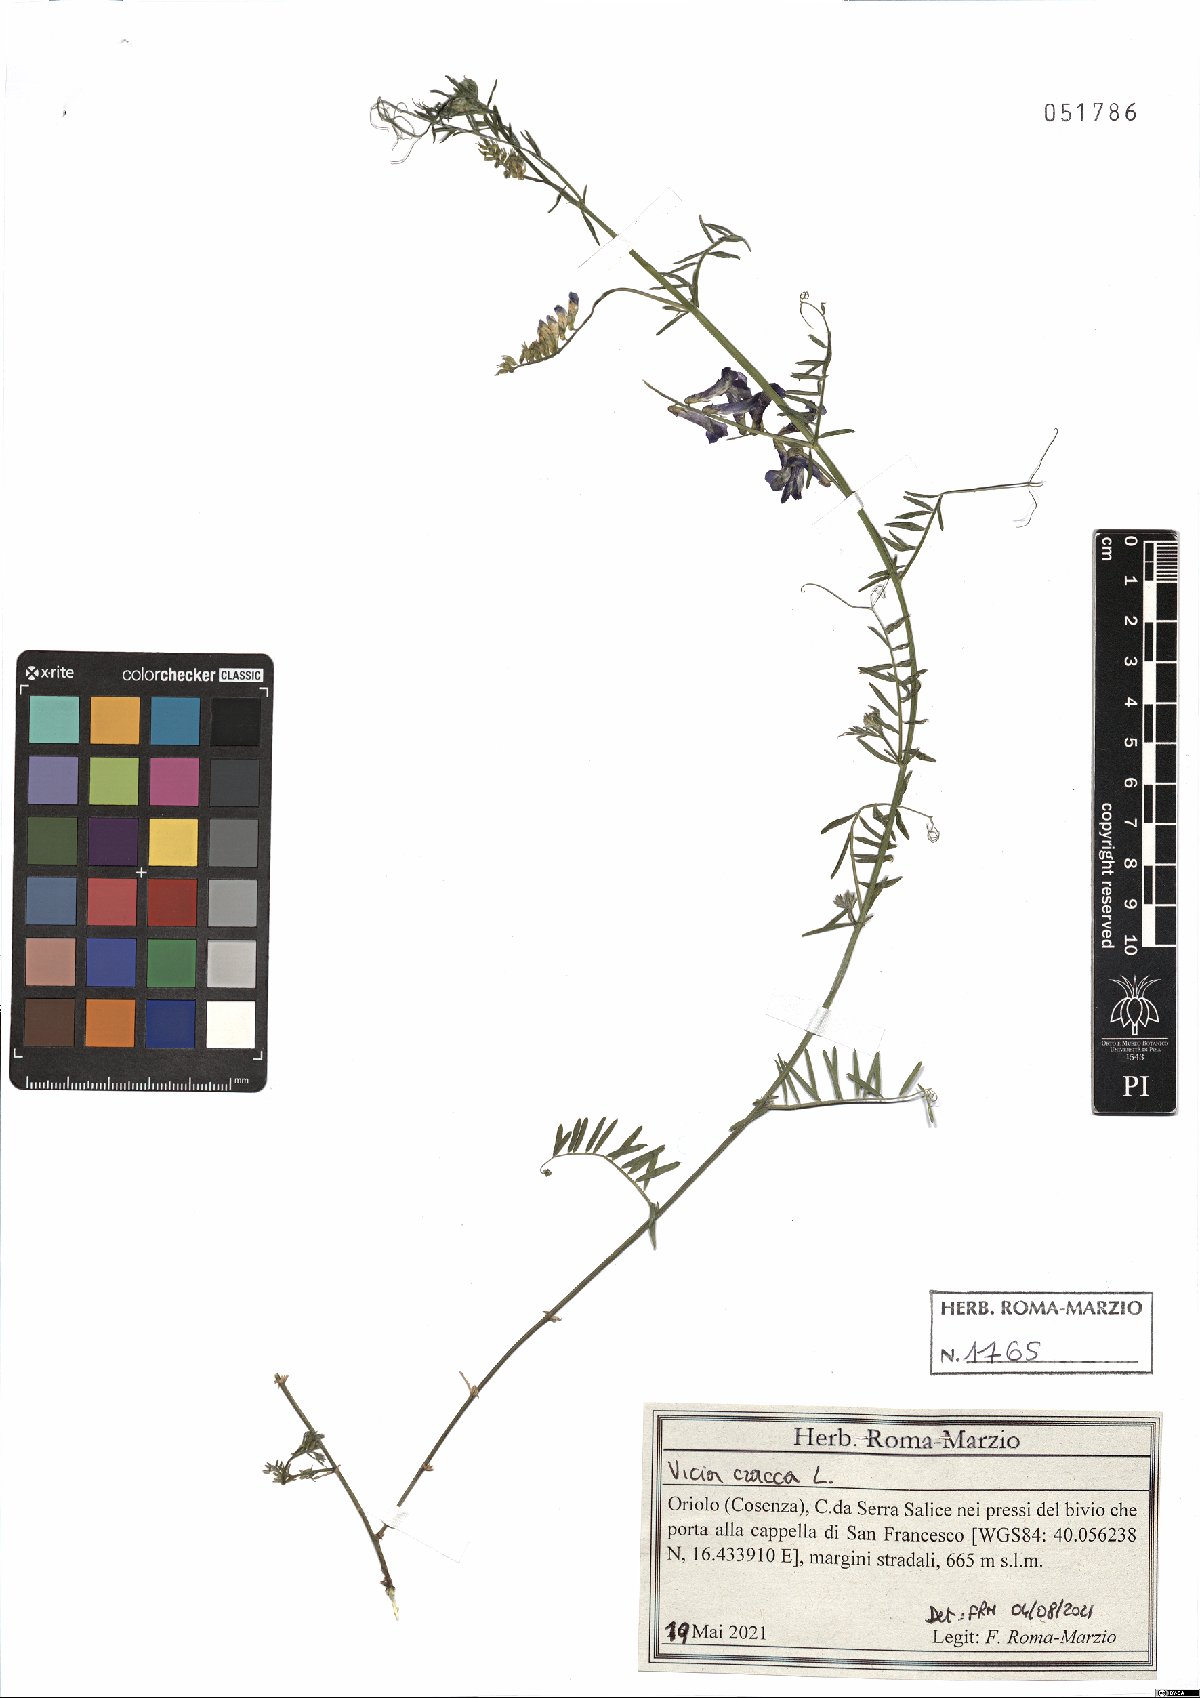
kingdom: Plantae
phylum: Tracheophyta
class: Magnoliopsida
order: Fabales
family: Fabaceae
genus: Vicia
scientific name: Vicia cracca
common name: Bird vetch
